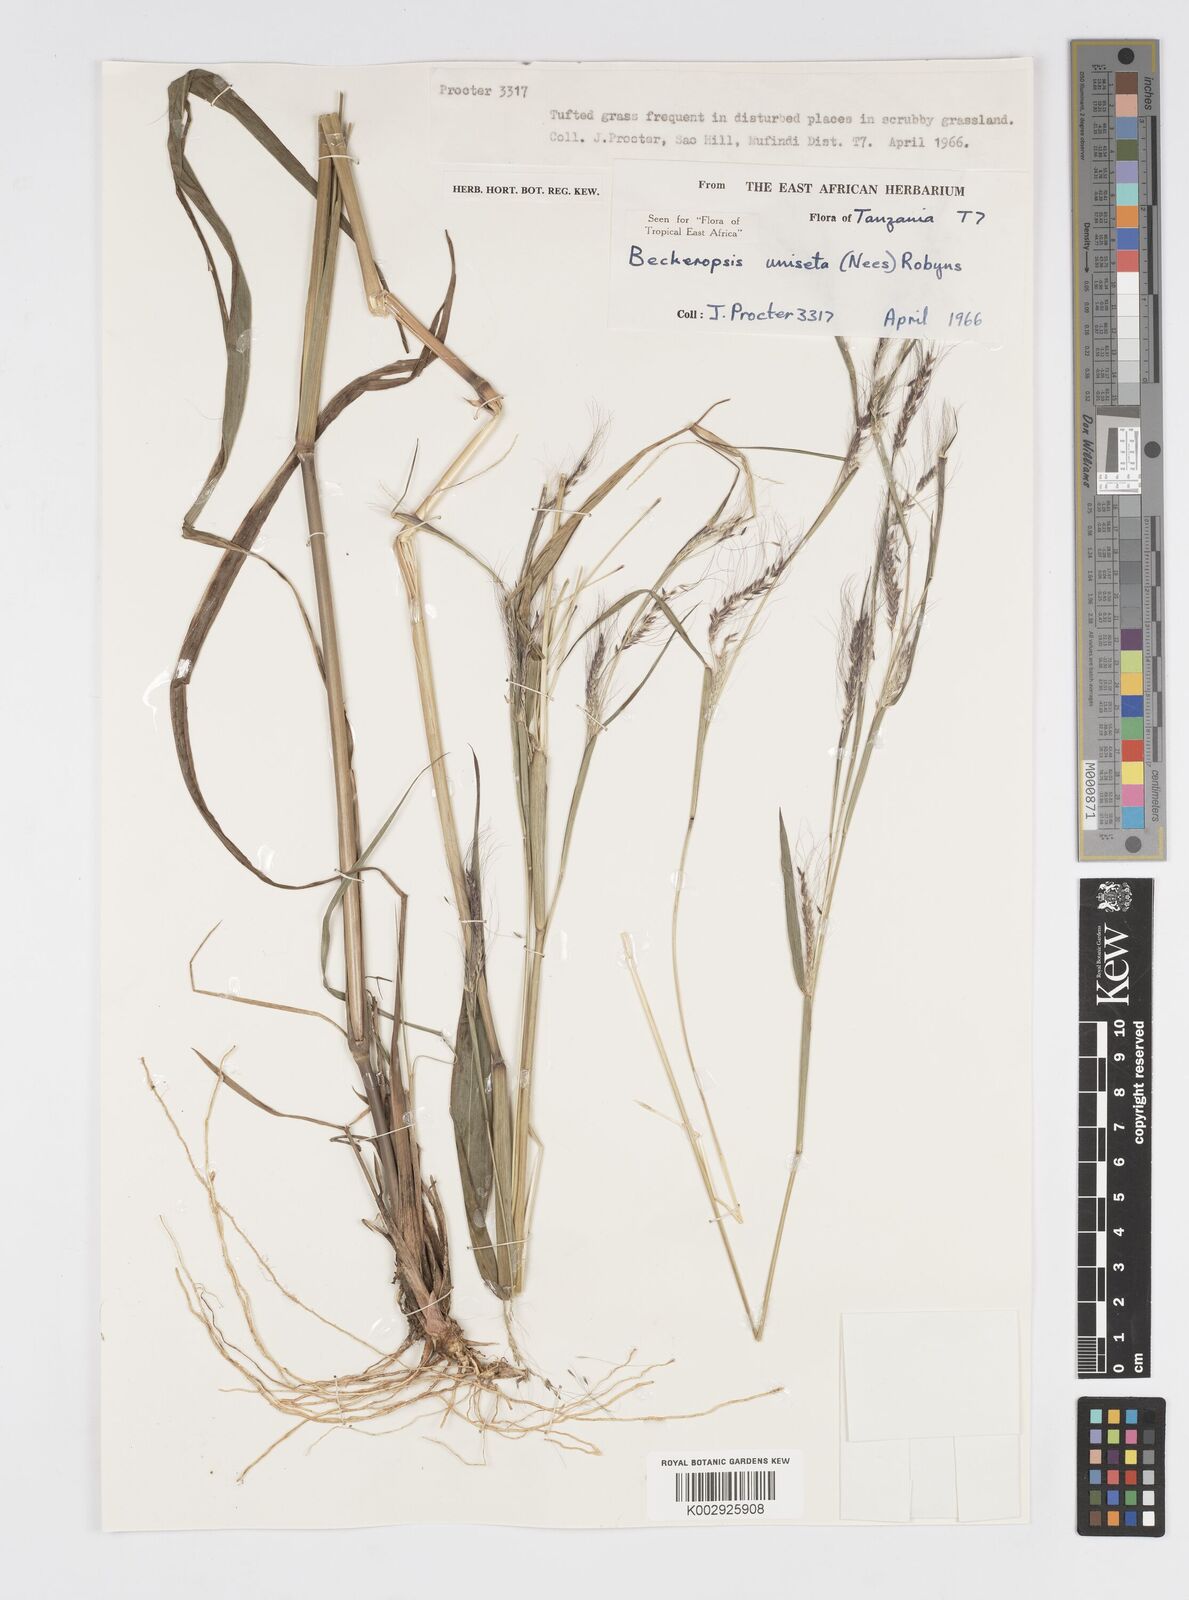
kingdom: Plantae
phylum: Tracheophyta
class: Liliopsida
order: Poales
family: Poaceae
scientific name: Poaceae
